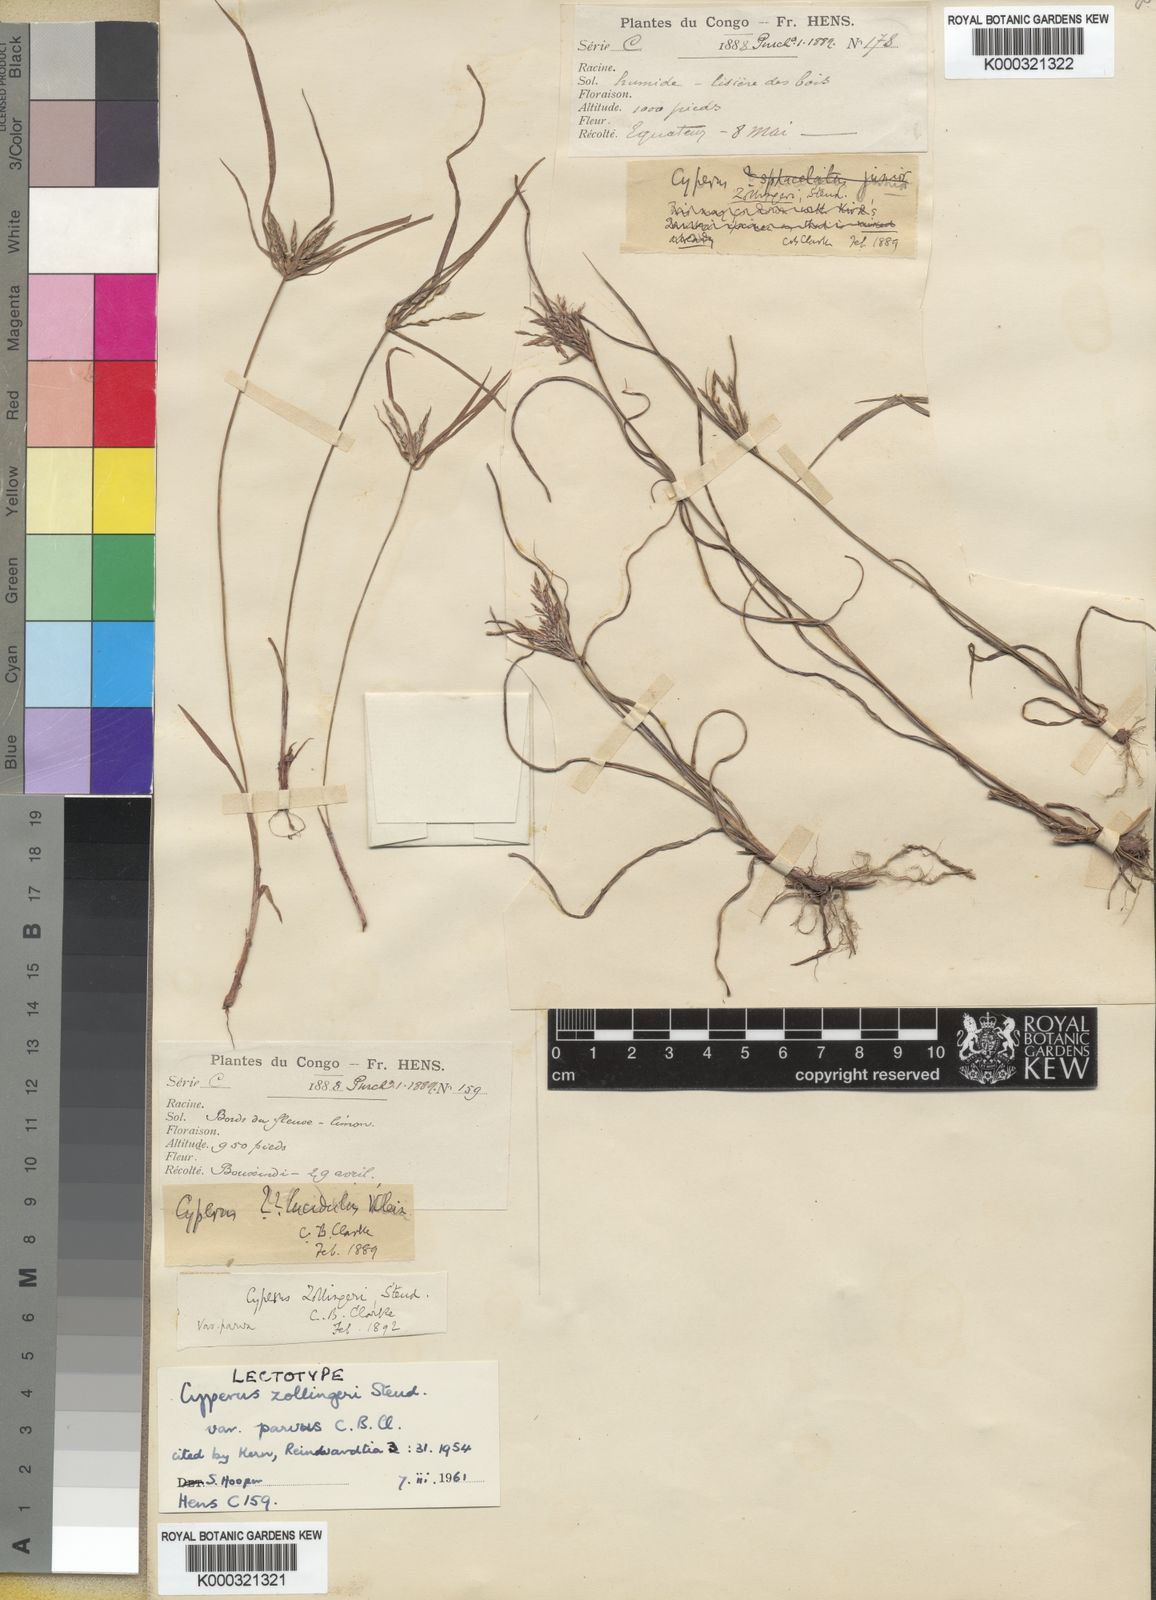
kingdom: Plantae
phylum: Tracheophyta
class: Liliopsida
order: Poales
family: Cyperaceae
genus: Cyperus
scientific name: Cyperus zollingeri
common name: Roadside flatsedge
